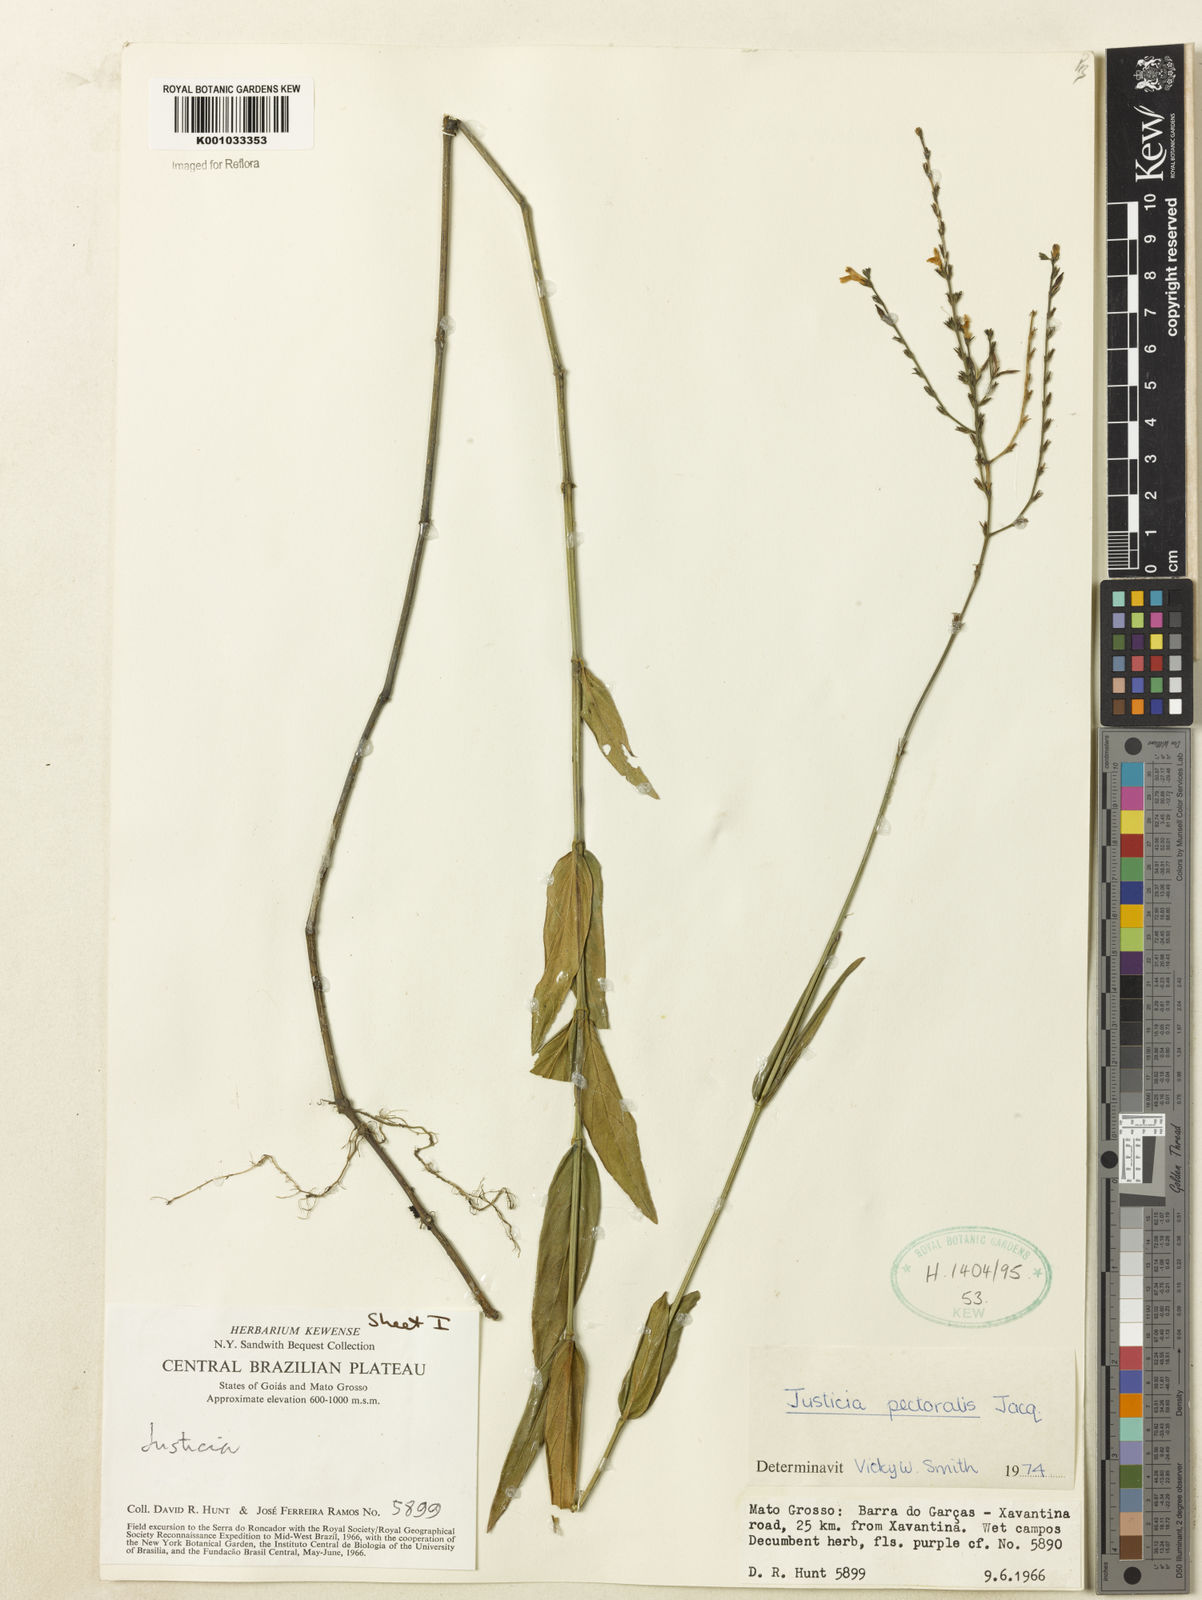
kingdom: Plantae
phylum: Tracheophyta
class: Magnoliopsida
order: Lamiales
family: Acanthaceae
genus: Dianthera
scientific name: Dianthera pectoralis
